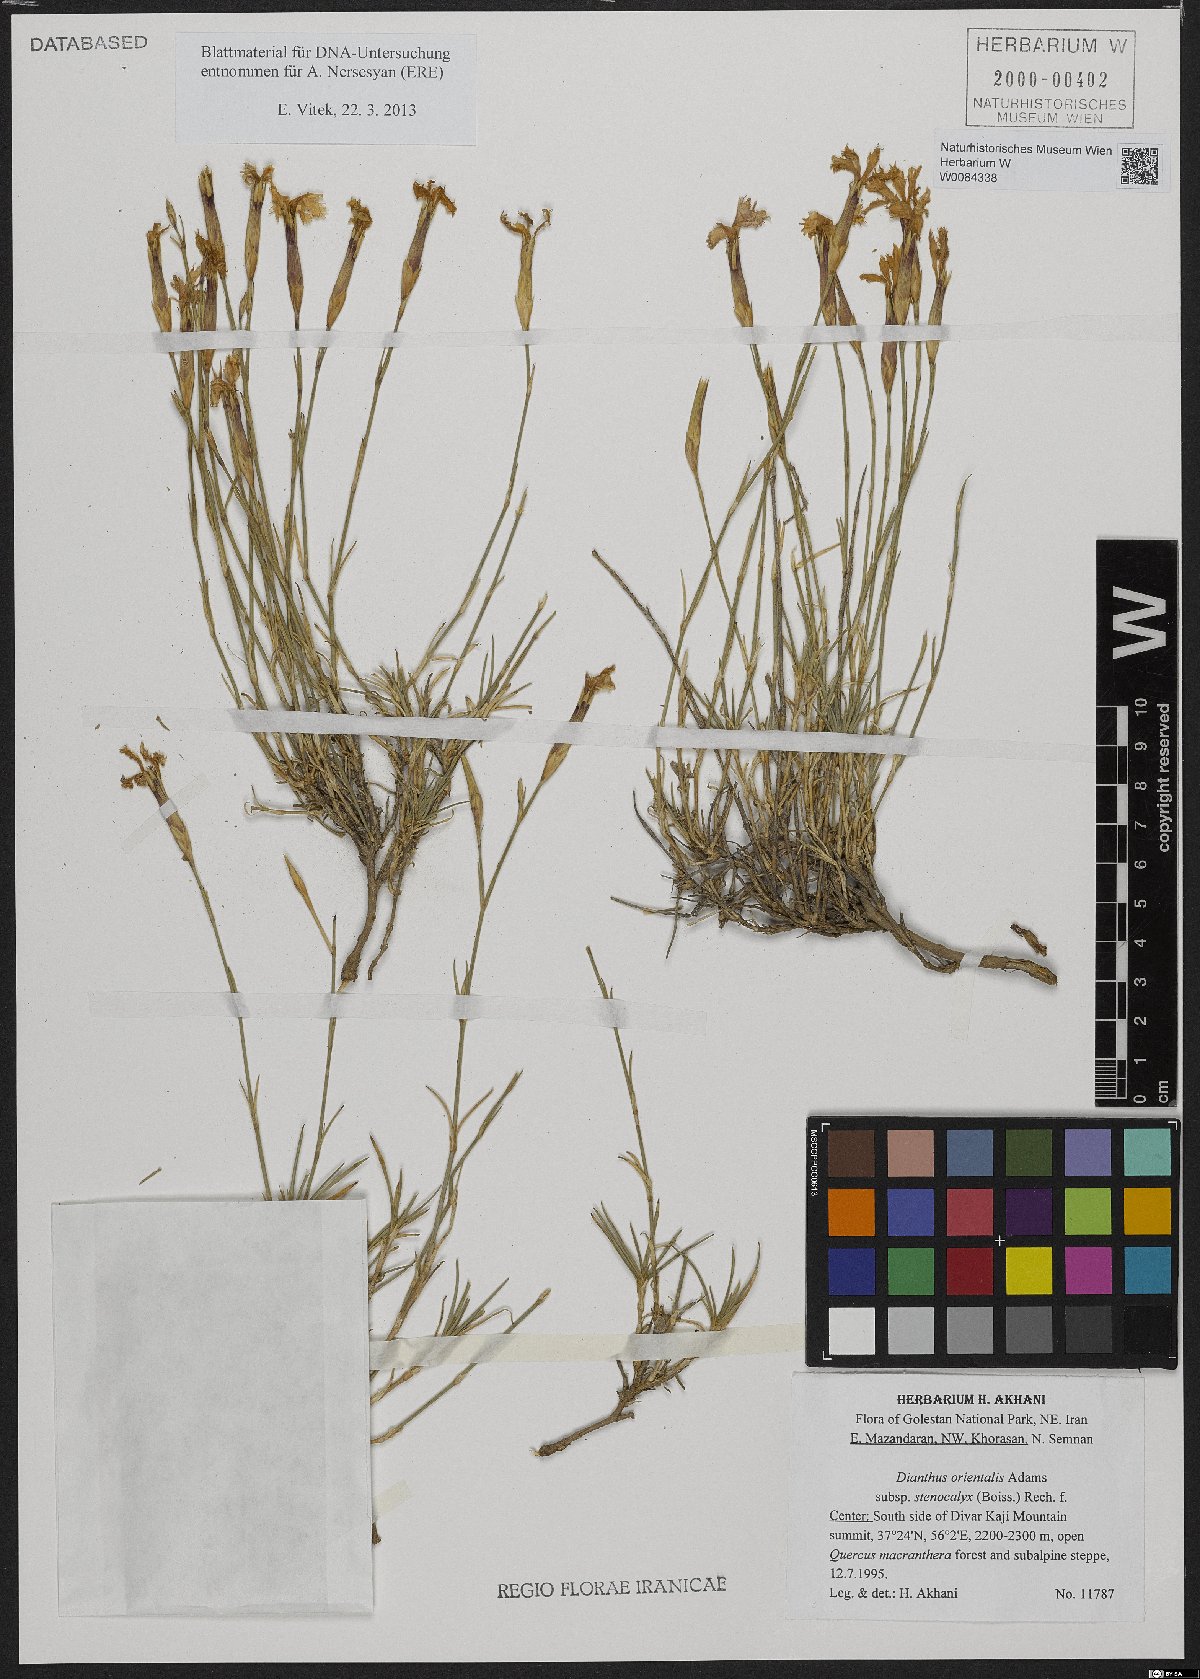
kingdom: Plantae
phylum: Tracheophyta
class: Magnoliopsida
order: Caryophyllales
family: Caryophyllaceae
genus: Dianthus
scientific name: Dianthus orientalis
